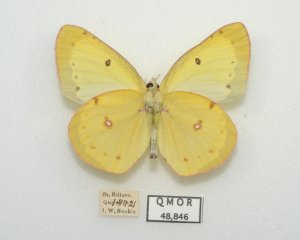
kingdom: Animalia
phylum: Arthropoda
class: Insecta
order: Lepidoptera
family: Pieridae
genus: Colias
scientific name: Colias philodice
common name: Clouded Sulphur
